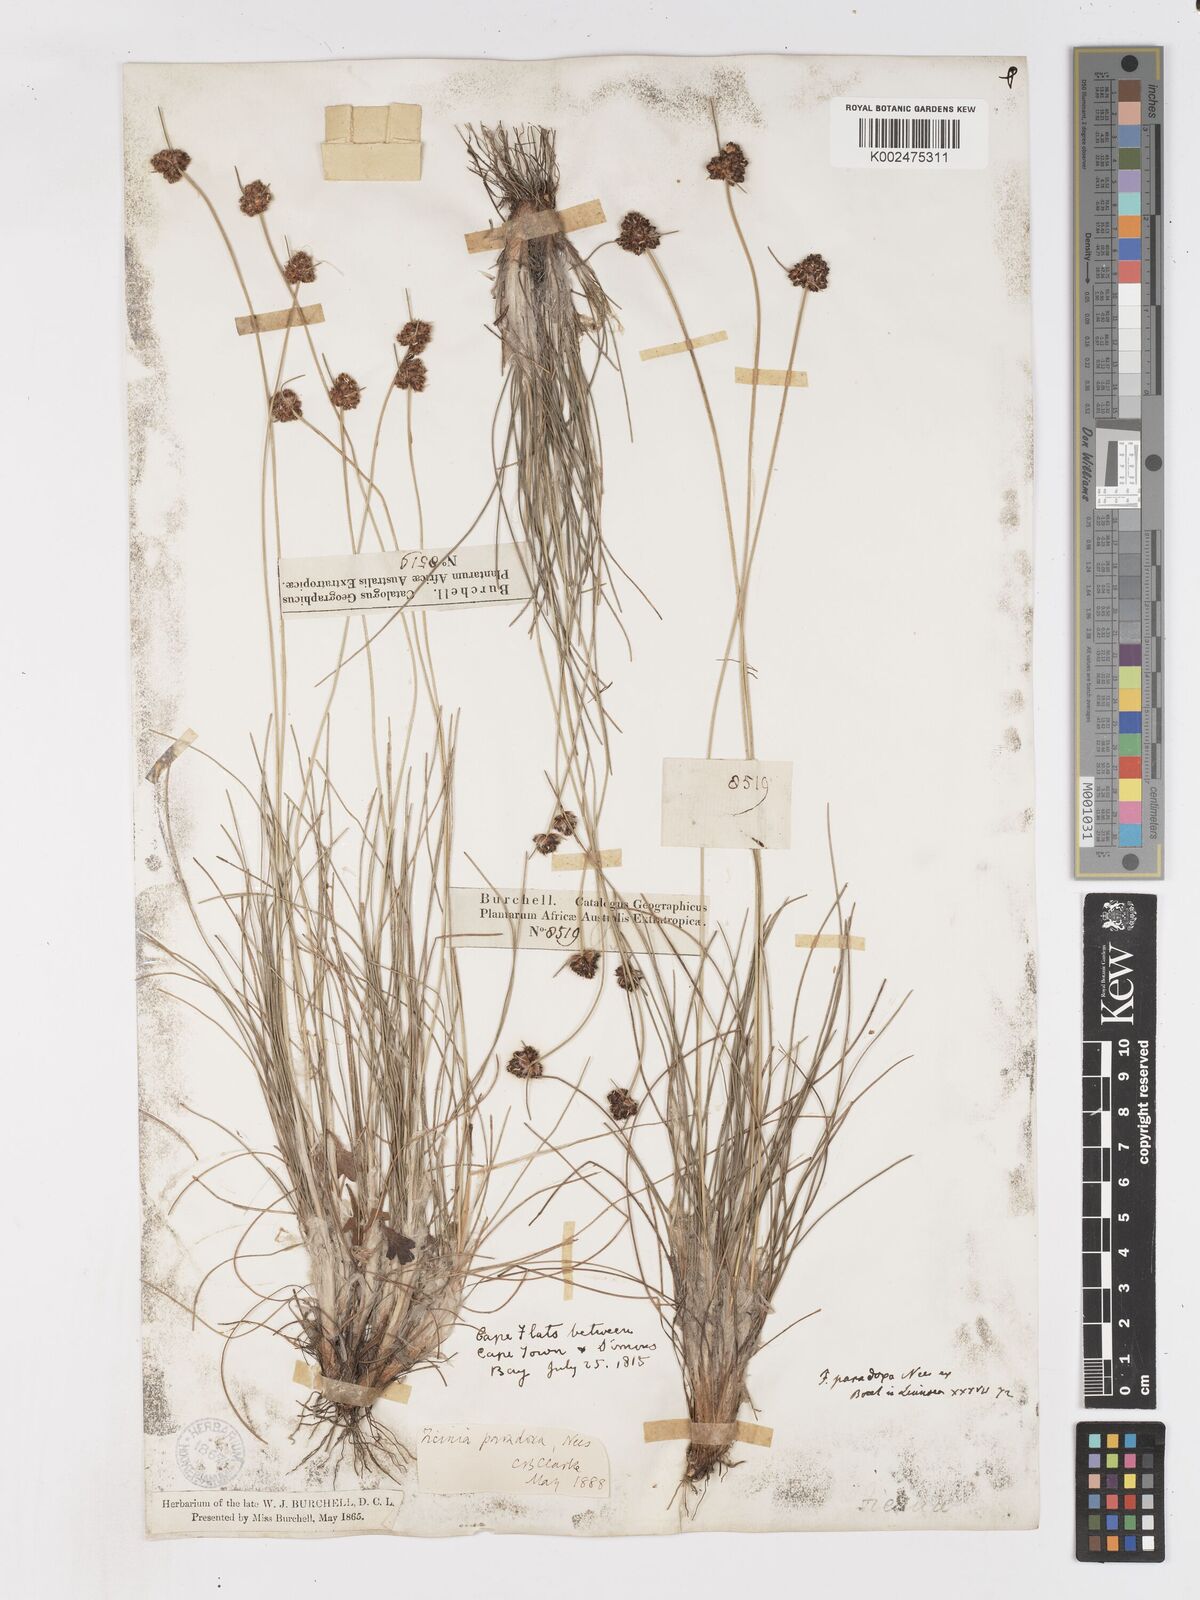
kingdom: Plantae
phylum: Tracheophyta
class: Liliopsida
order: Poales
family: Cyperaceae
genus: Ficinia
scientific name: Ficinia paradoxa
